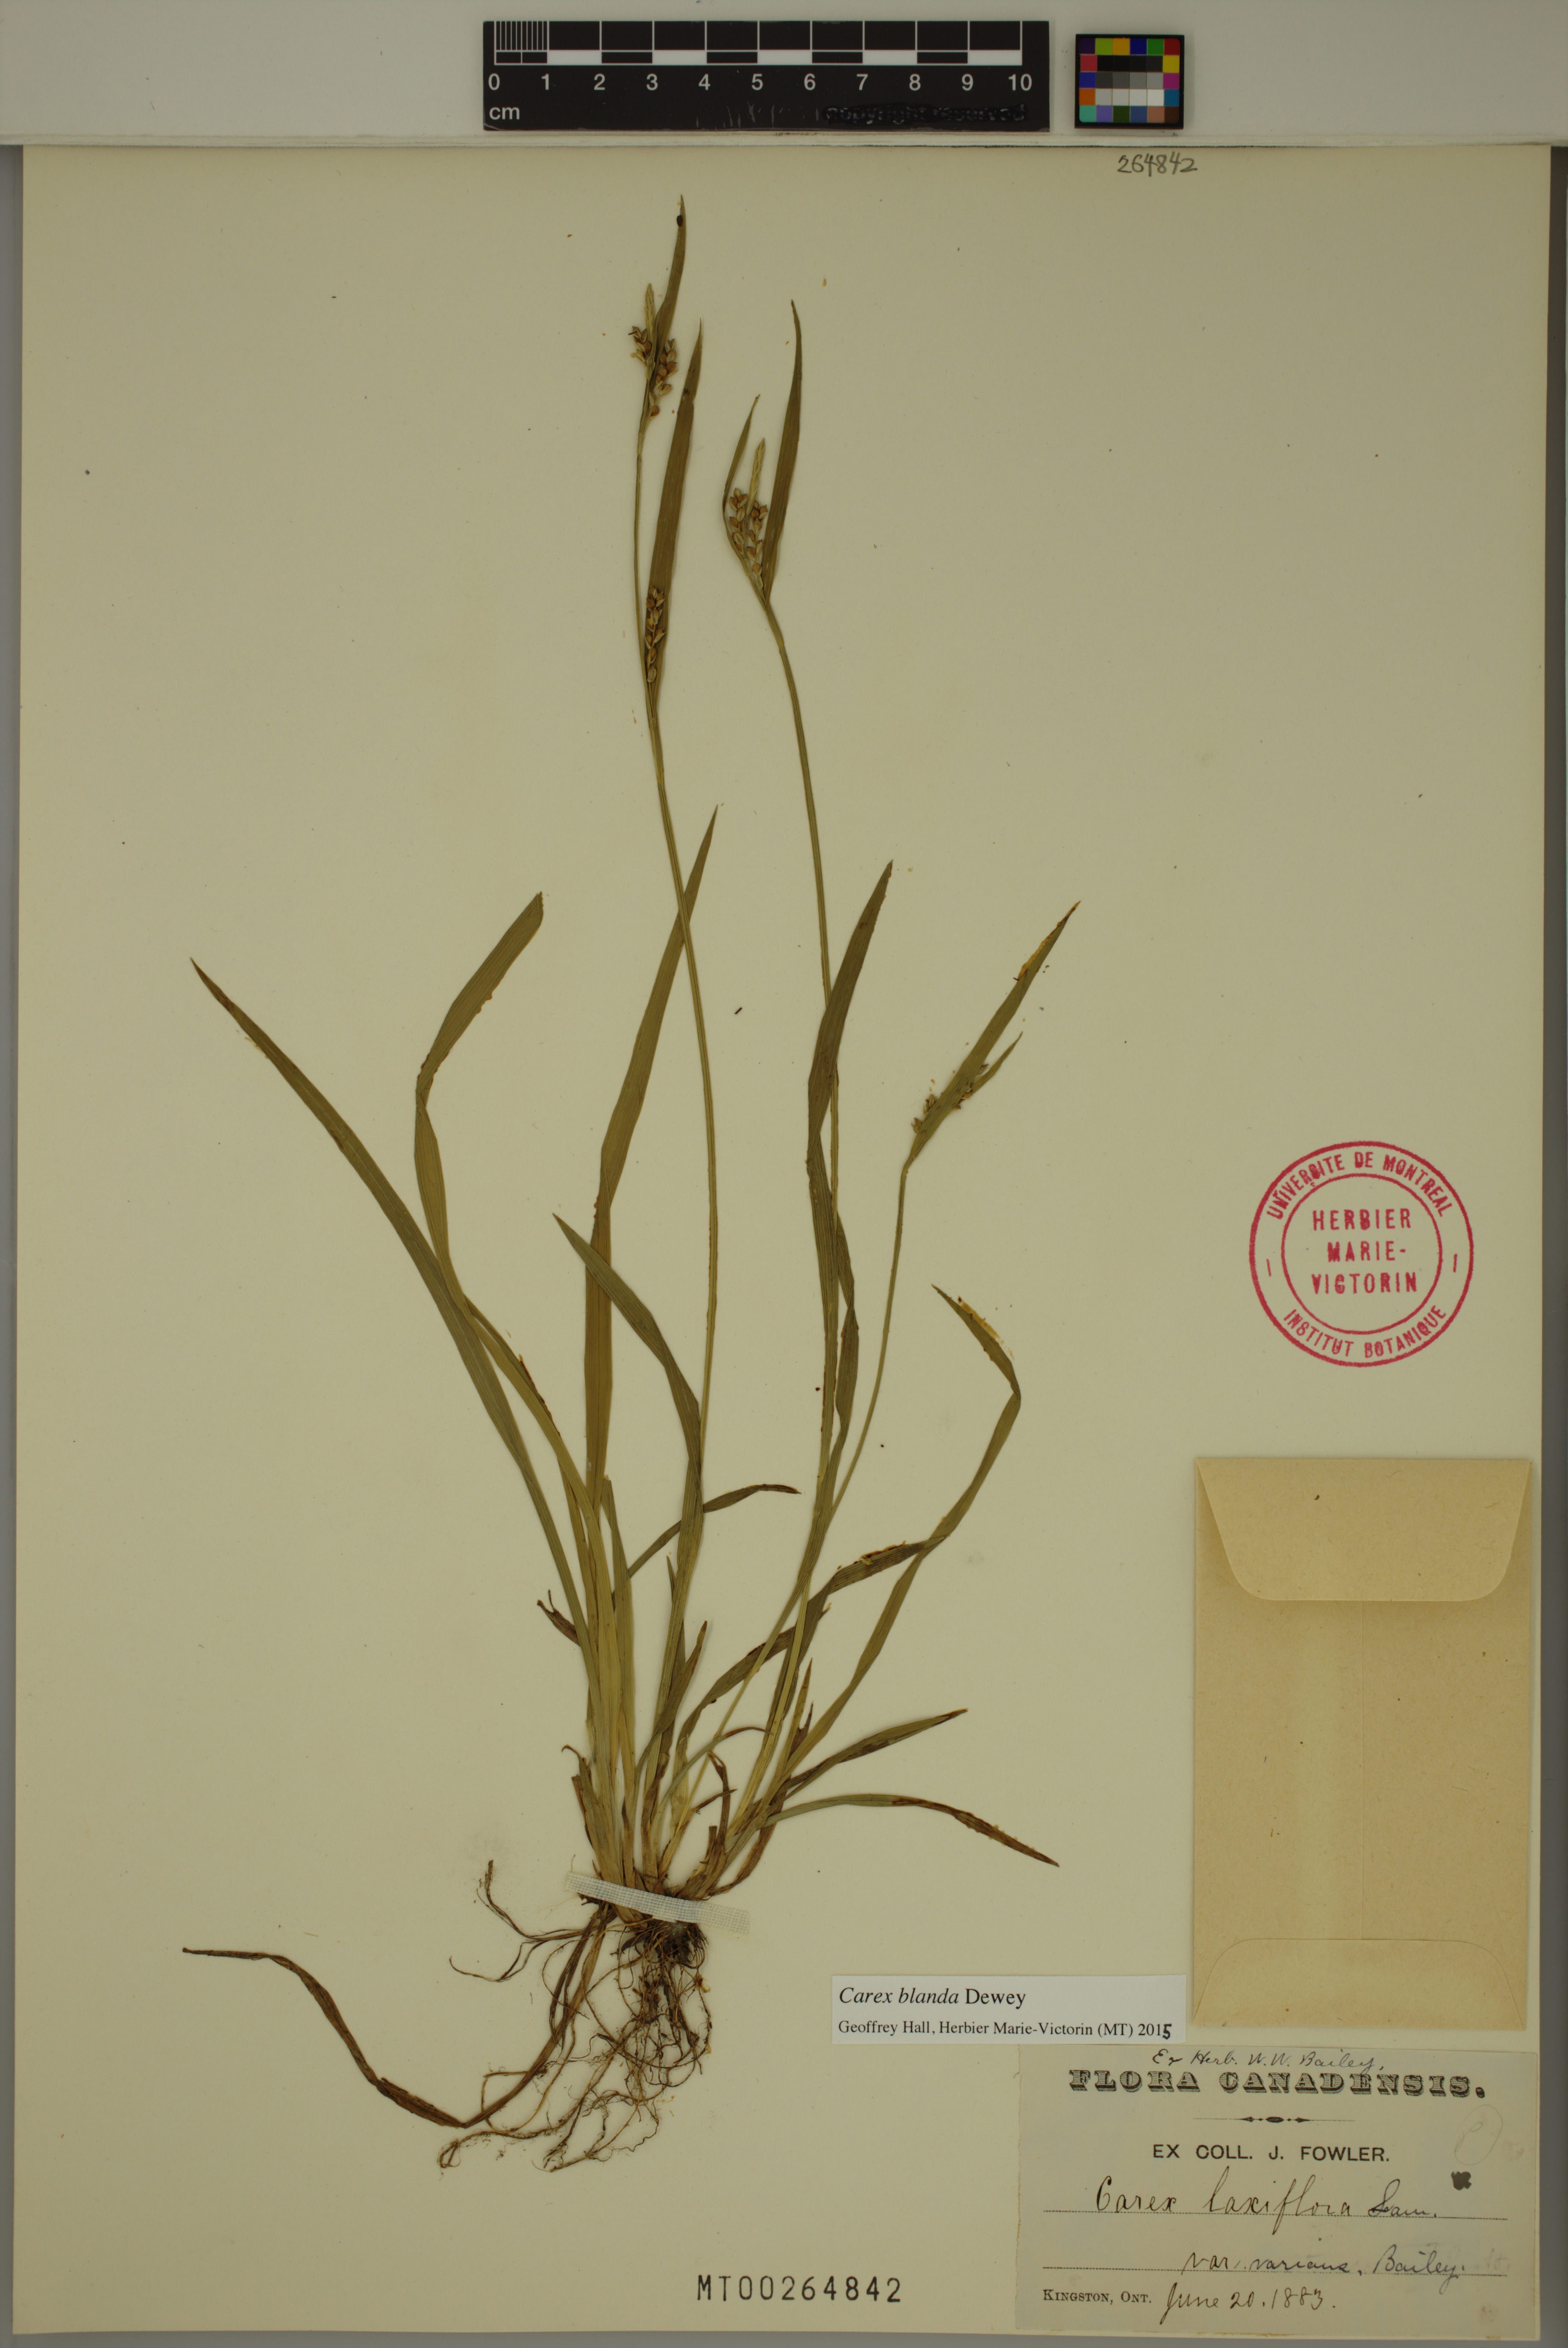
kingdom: Plantae
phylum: Tracheophyta
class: Liliopsida
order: Poales
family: Cyperaceae
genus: Carex
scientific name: Carex blanda
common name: Bland sedge
